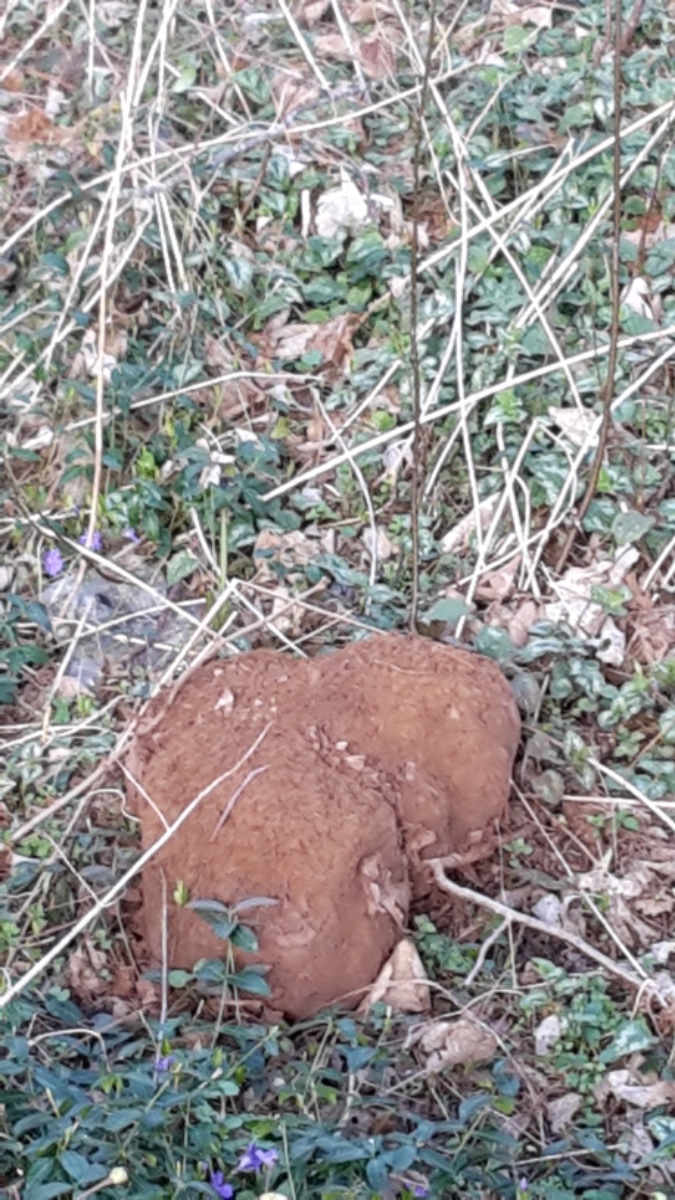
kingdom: Fungi
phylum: Basidiomycota
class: Agaricomycetes
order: Agaricales
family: Lycoperdaceae
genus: Calvatia
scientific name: Calvatia gigantea
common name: kæmpestøvbold
